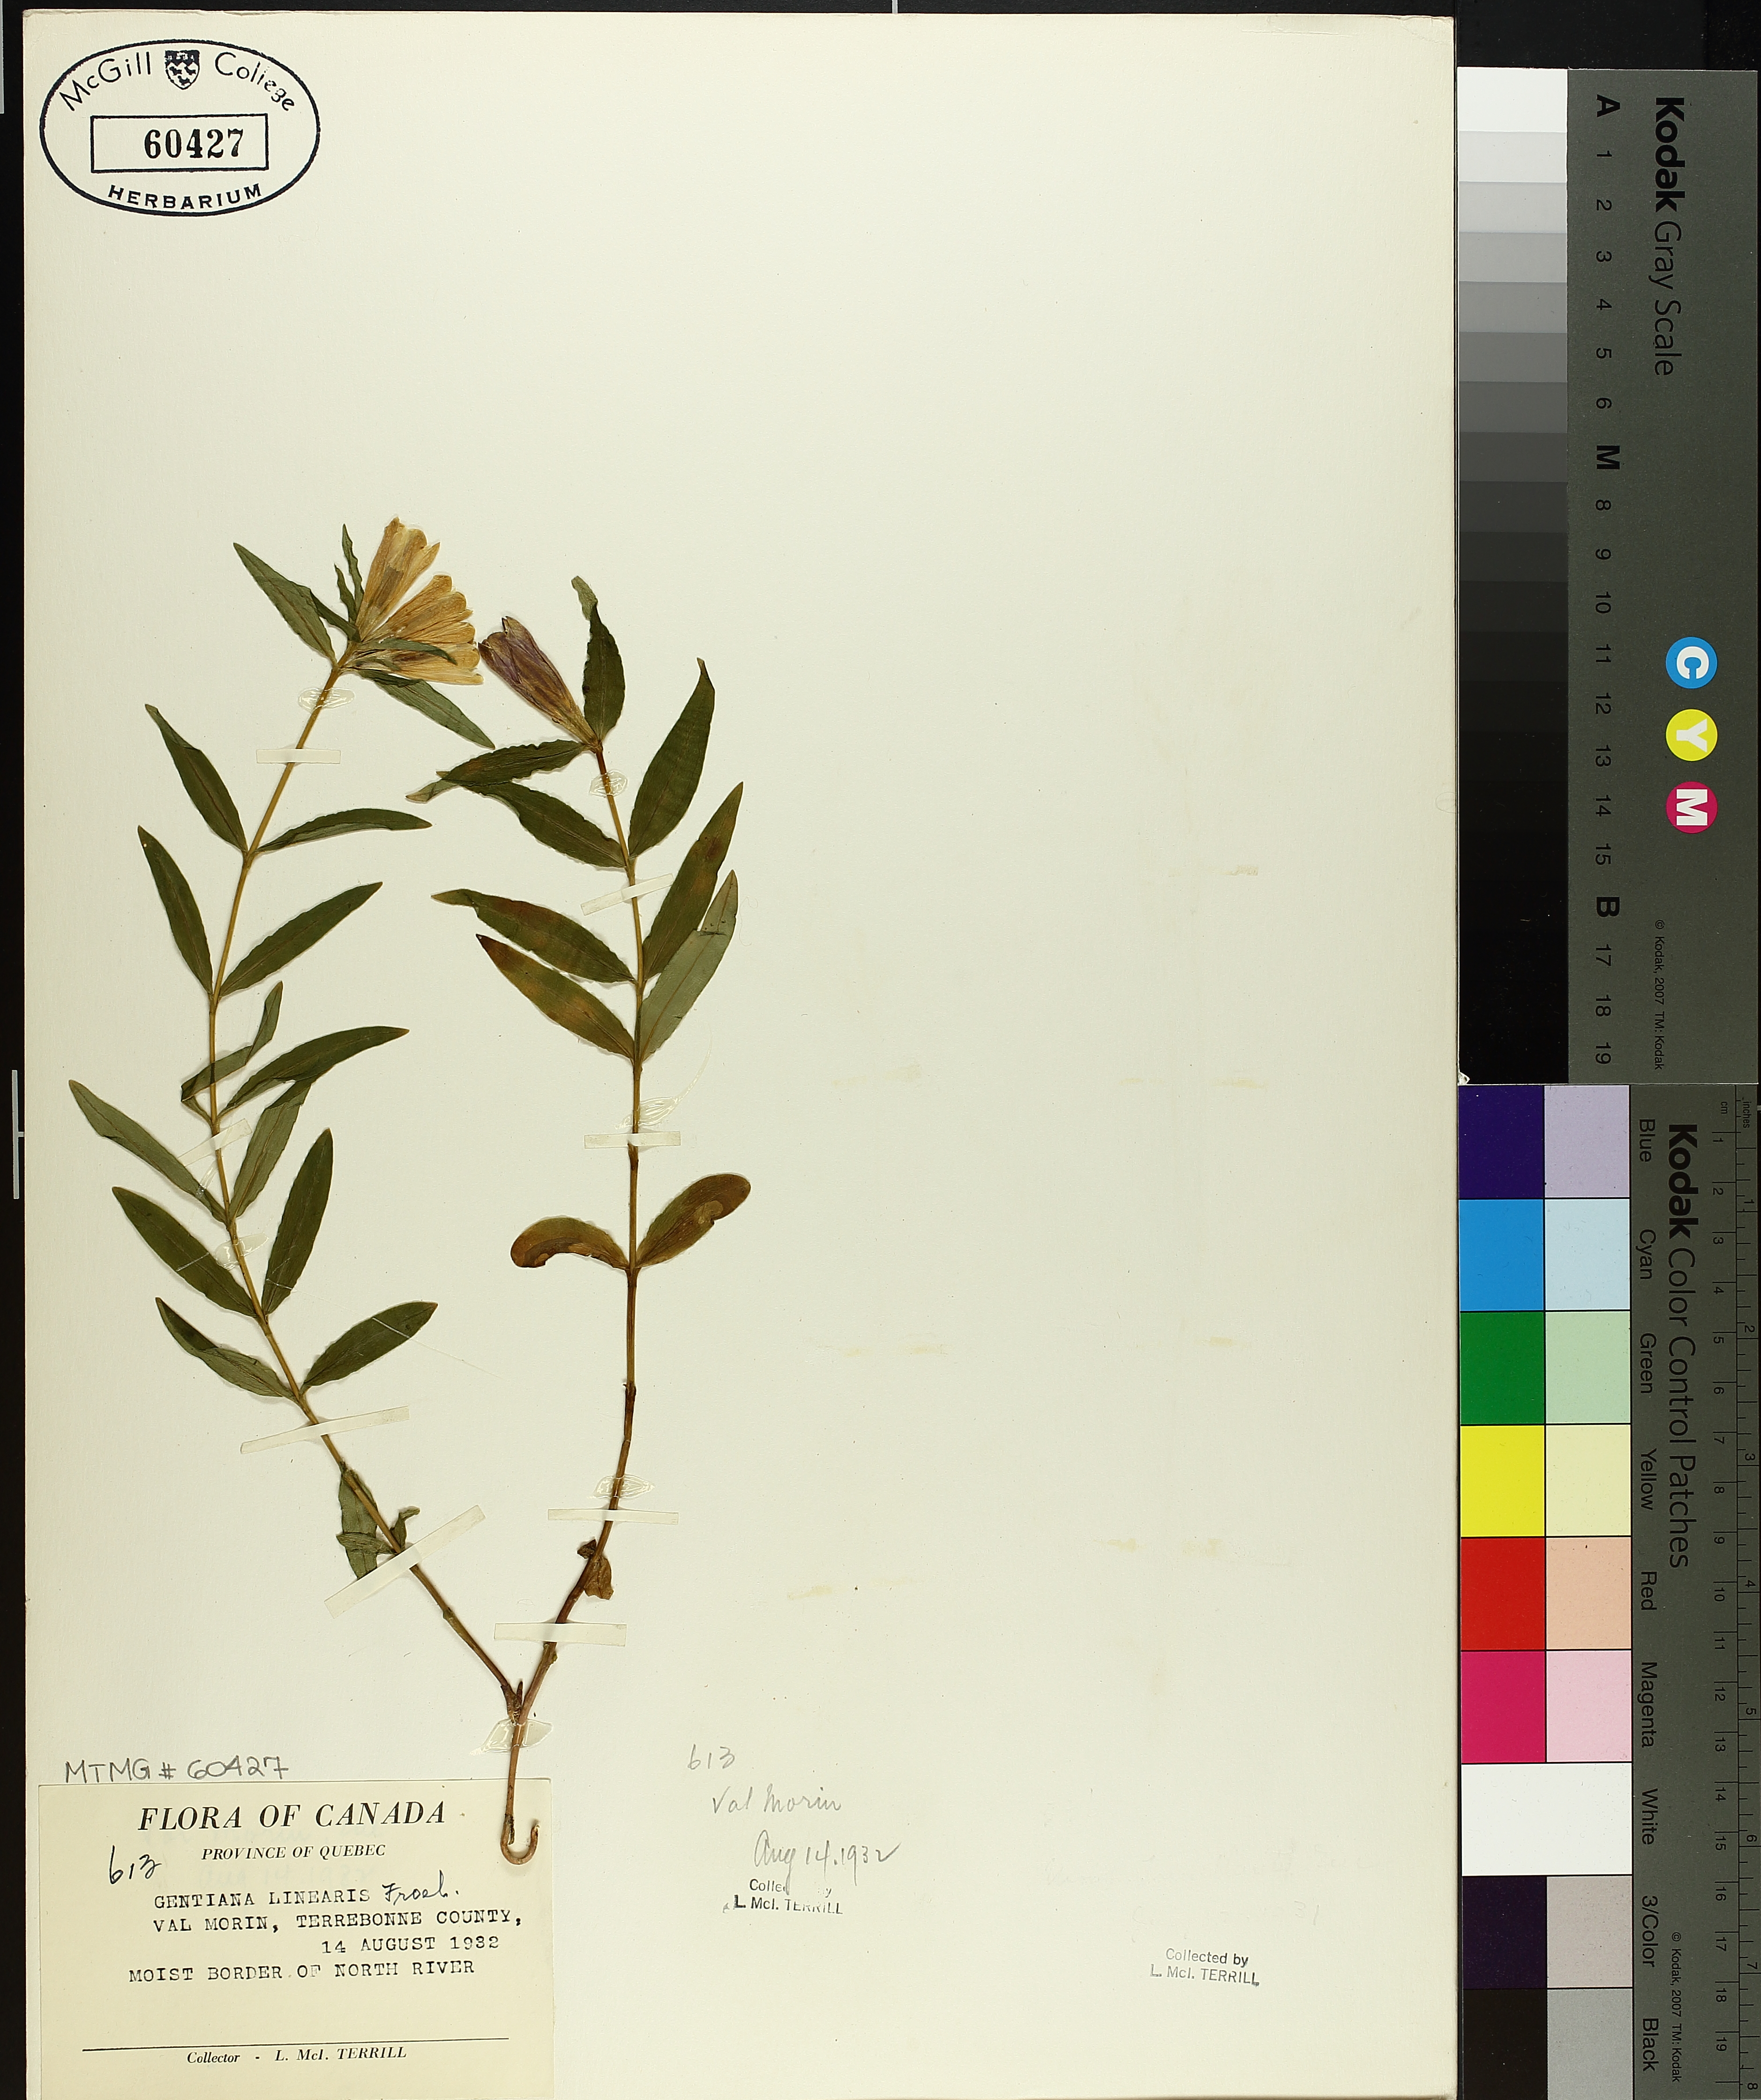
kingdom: Plantae
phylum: Tracheophyta
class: Magnoliopsida
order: Gentianales
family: Gentianaceae
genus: Gentiana
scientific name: Gentiana linearis
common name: Bastard gentian
